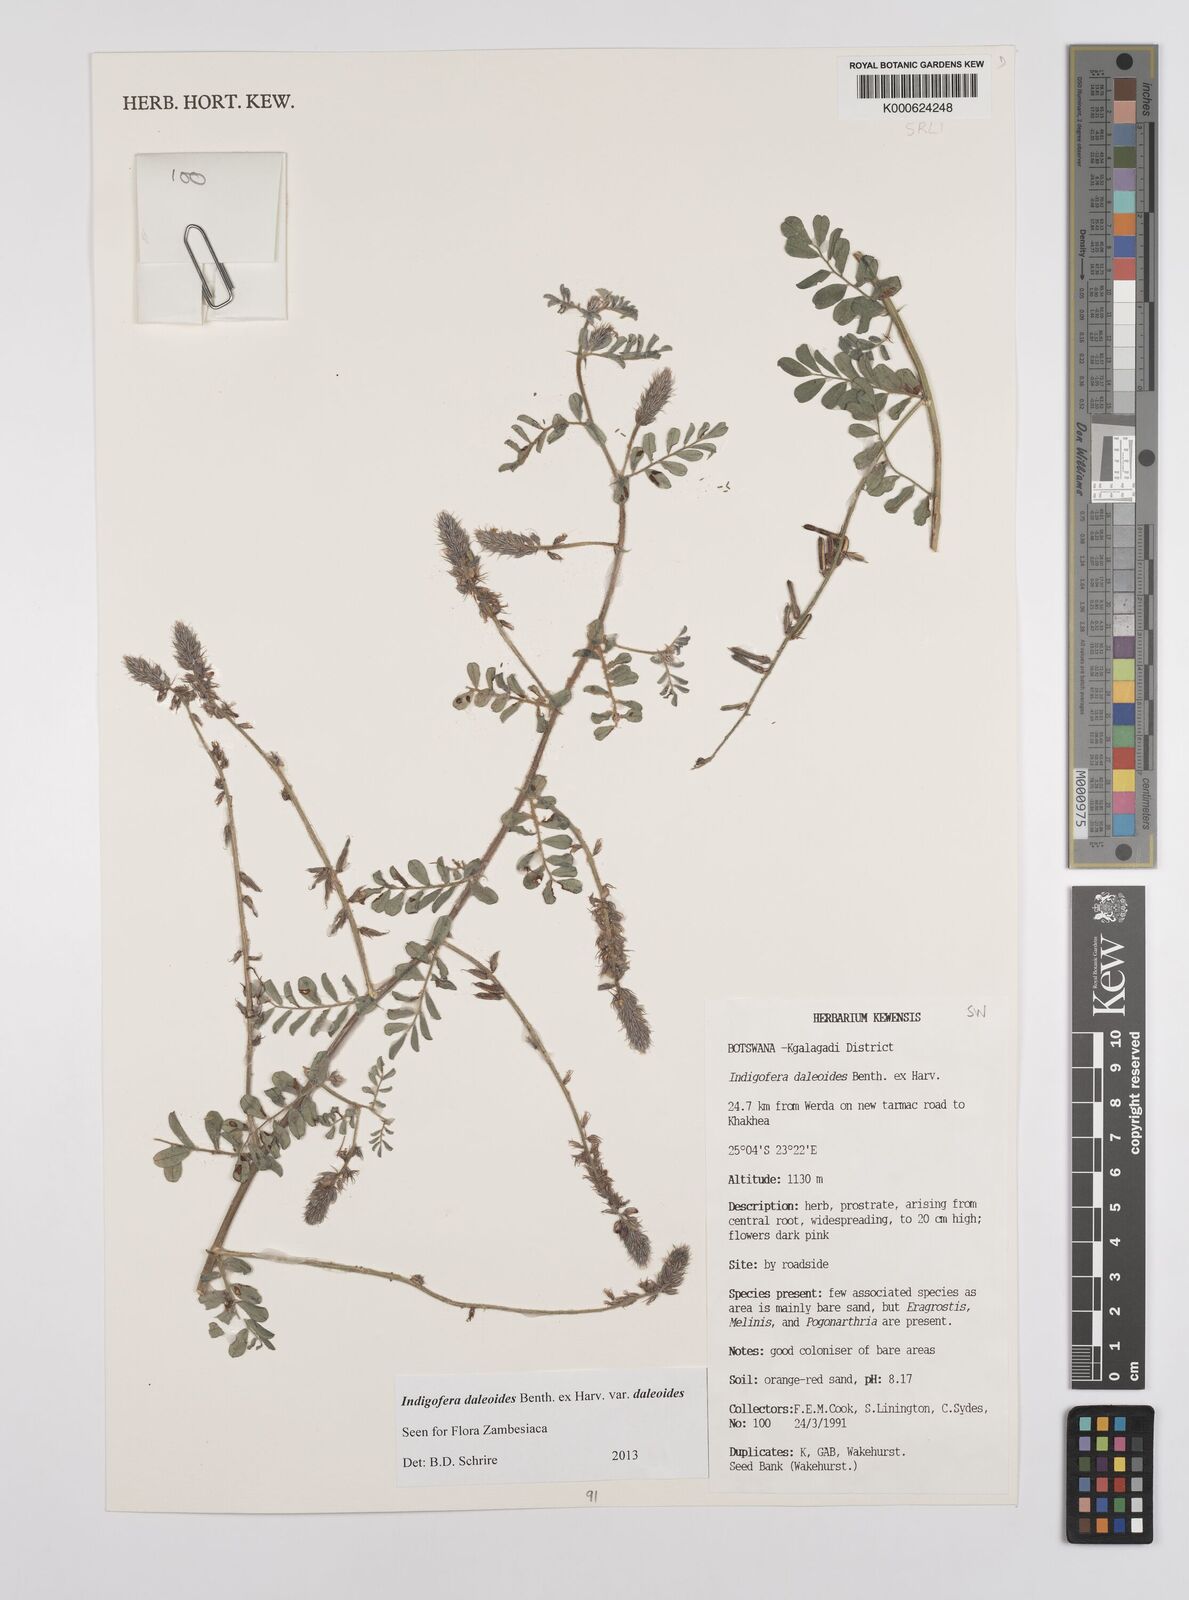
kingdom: Plantae
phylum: Tracheophyta
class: Magnoliopsida
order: Fabales
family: Fabaceae
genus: Indigofera
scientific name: Indigofera daleoides
